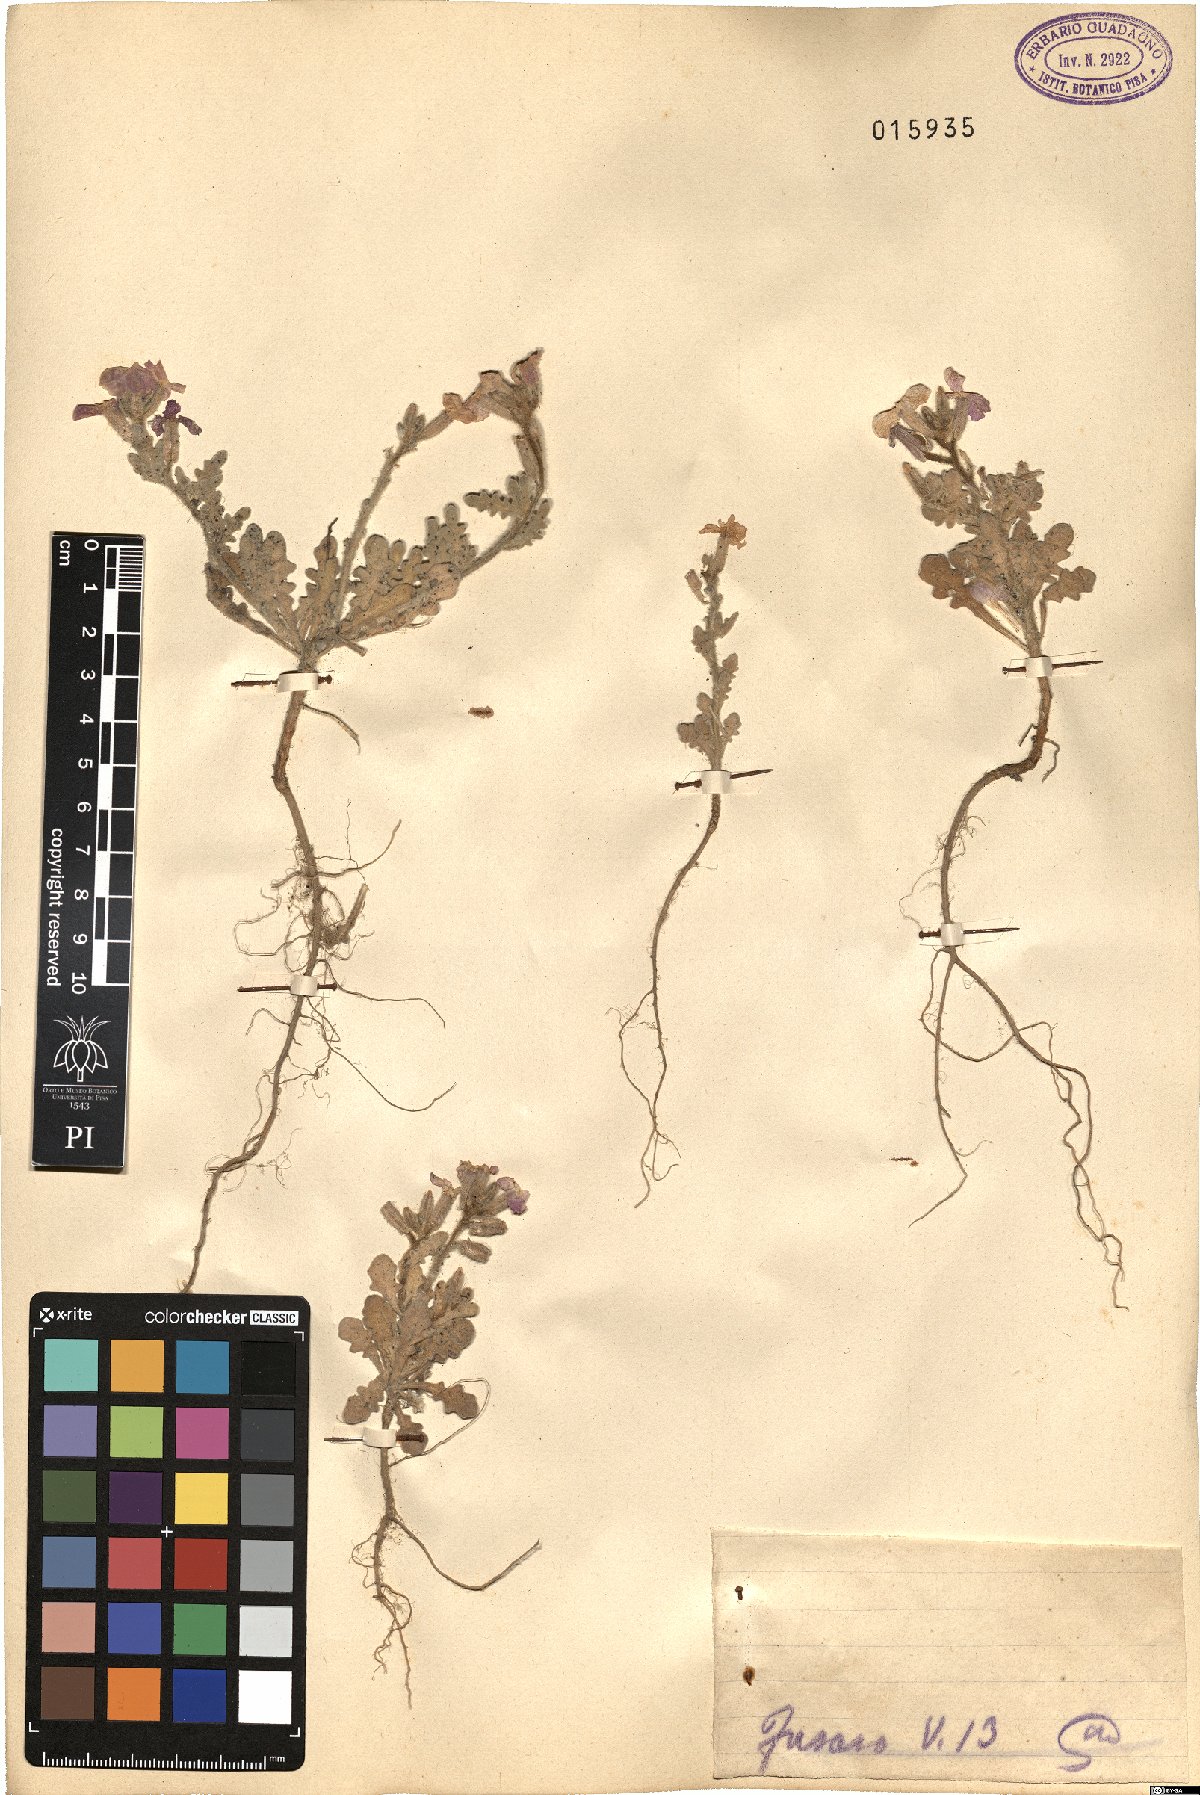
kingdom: Plantae
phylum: Tracheophyta
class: Magnoliopsida
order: Brassicales
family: Brassicaceae
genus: Matthiola
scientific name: Matthiola
